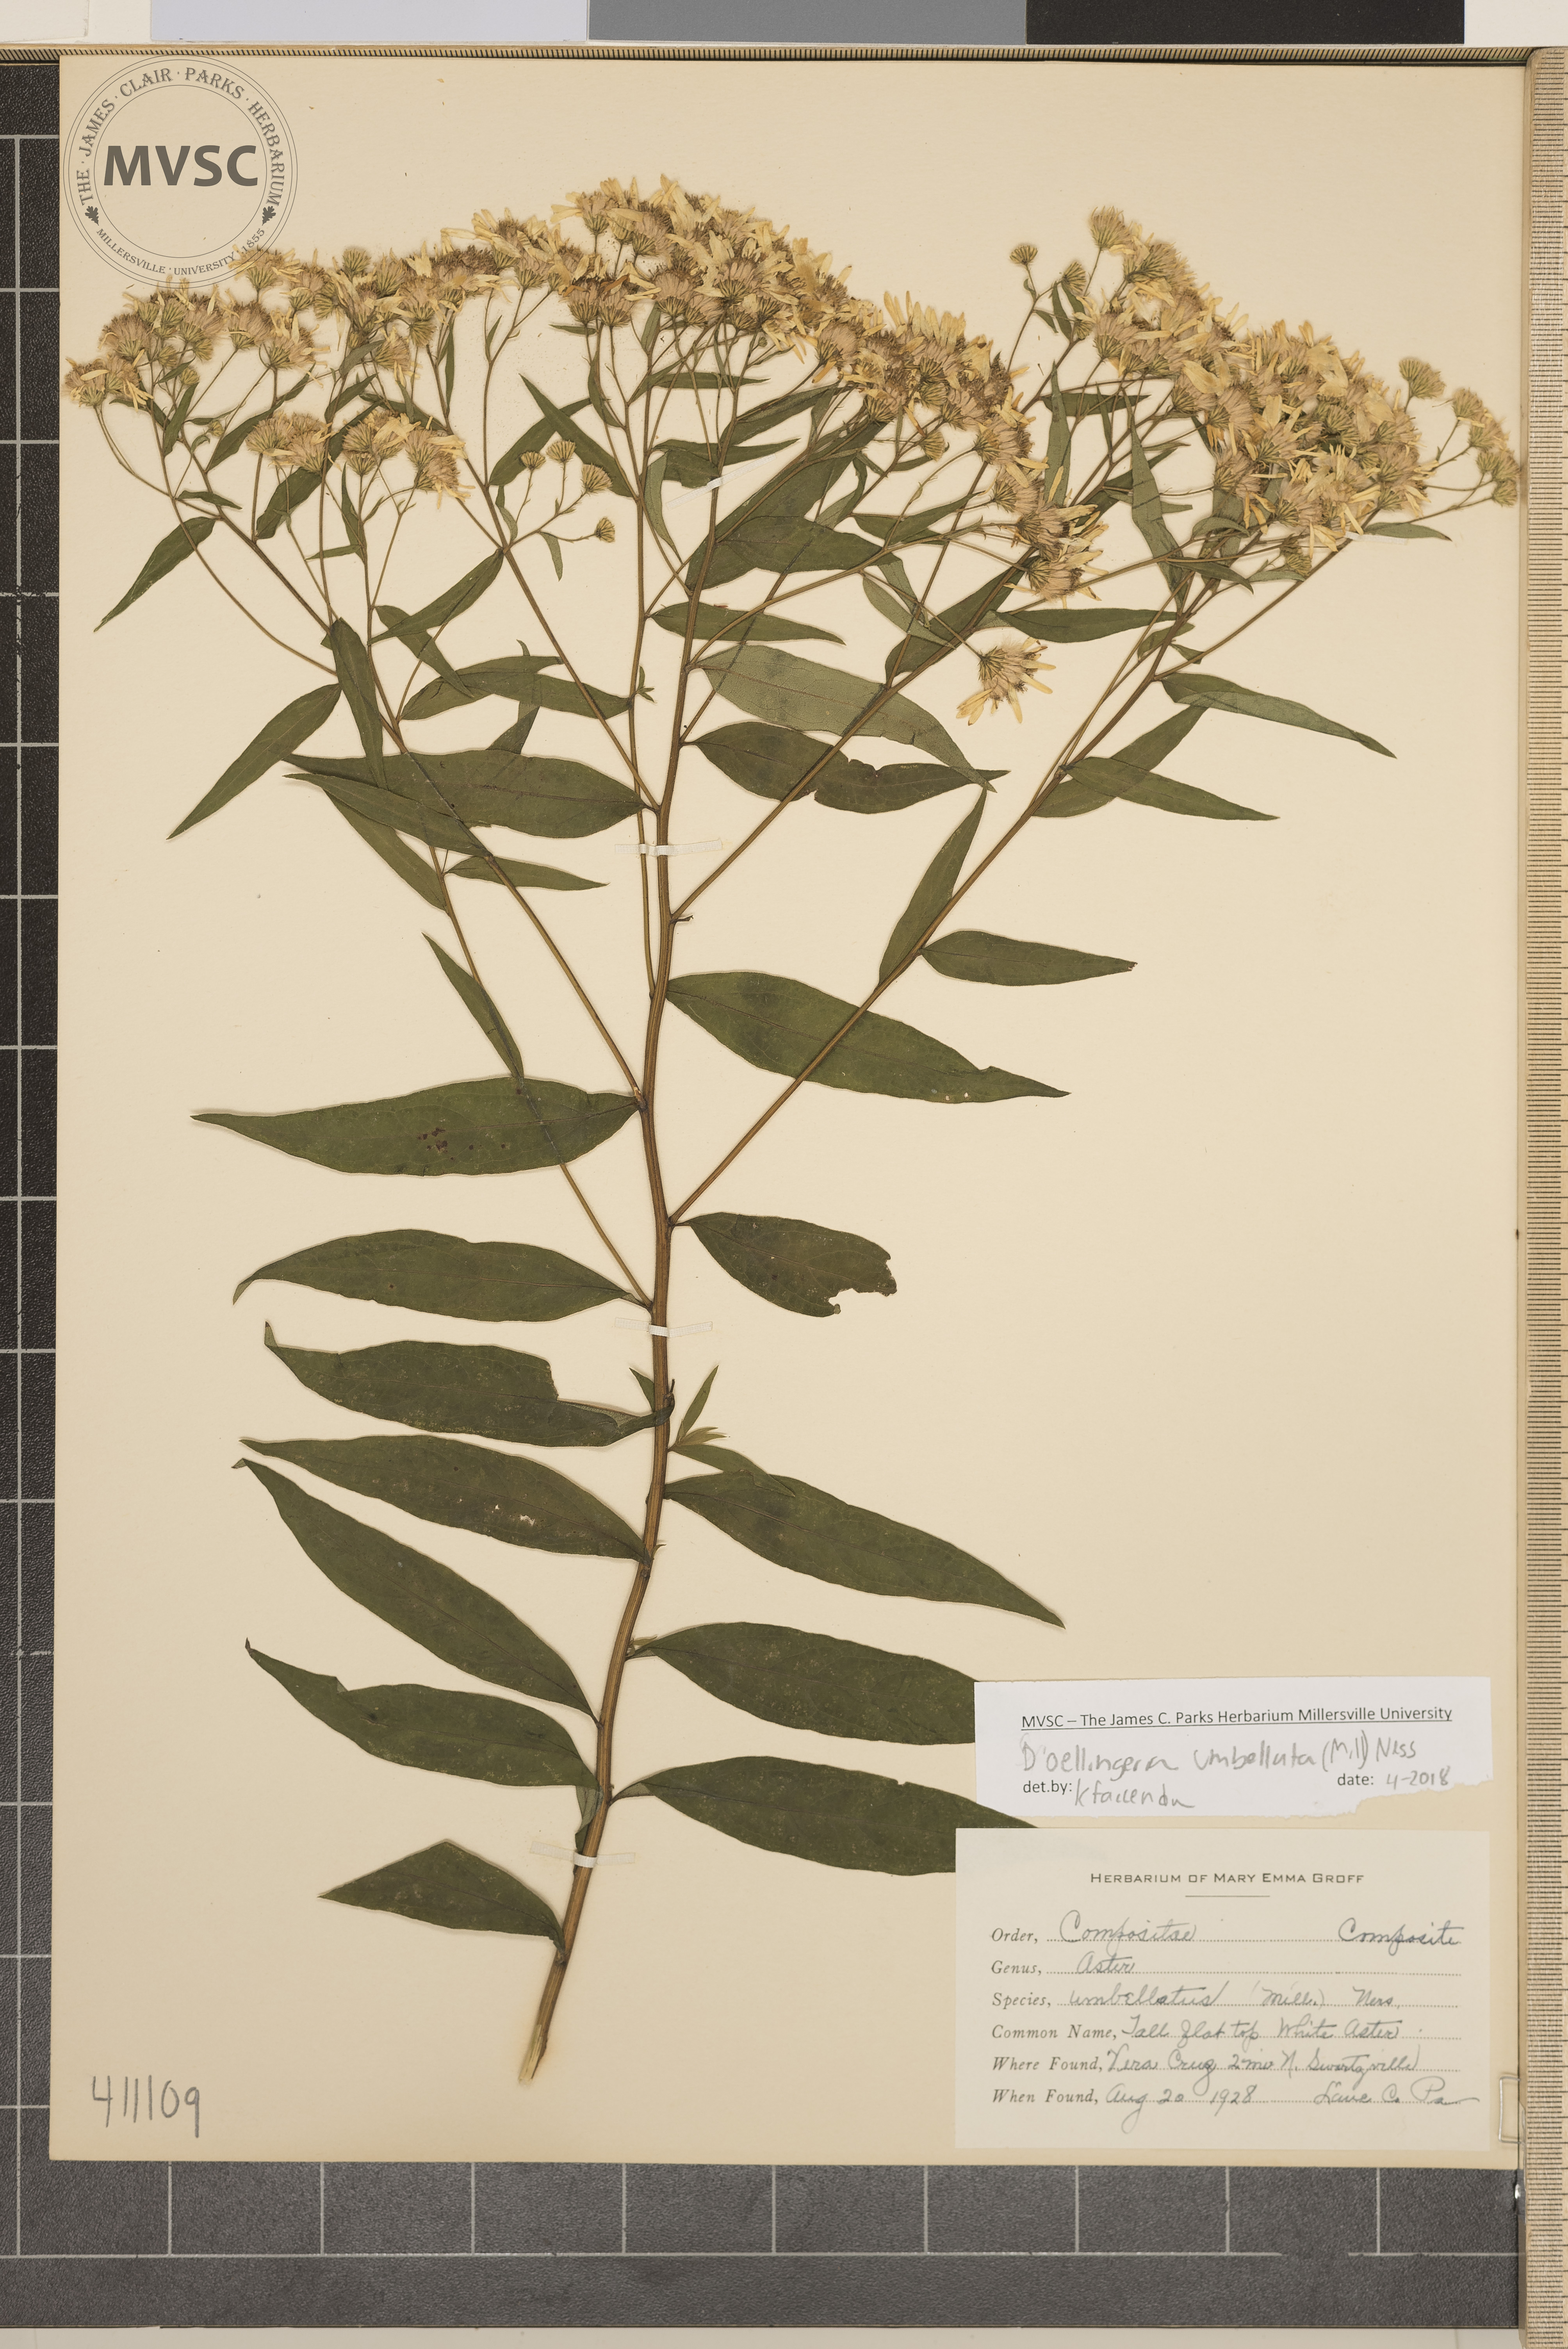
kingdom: Plantae
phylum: Tracheophyta
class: Magnoliopsida
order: Asterales
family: Asteraceae
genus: Doellingeria
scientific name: Doellingeria umbellata
